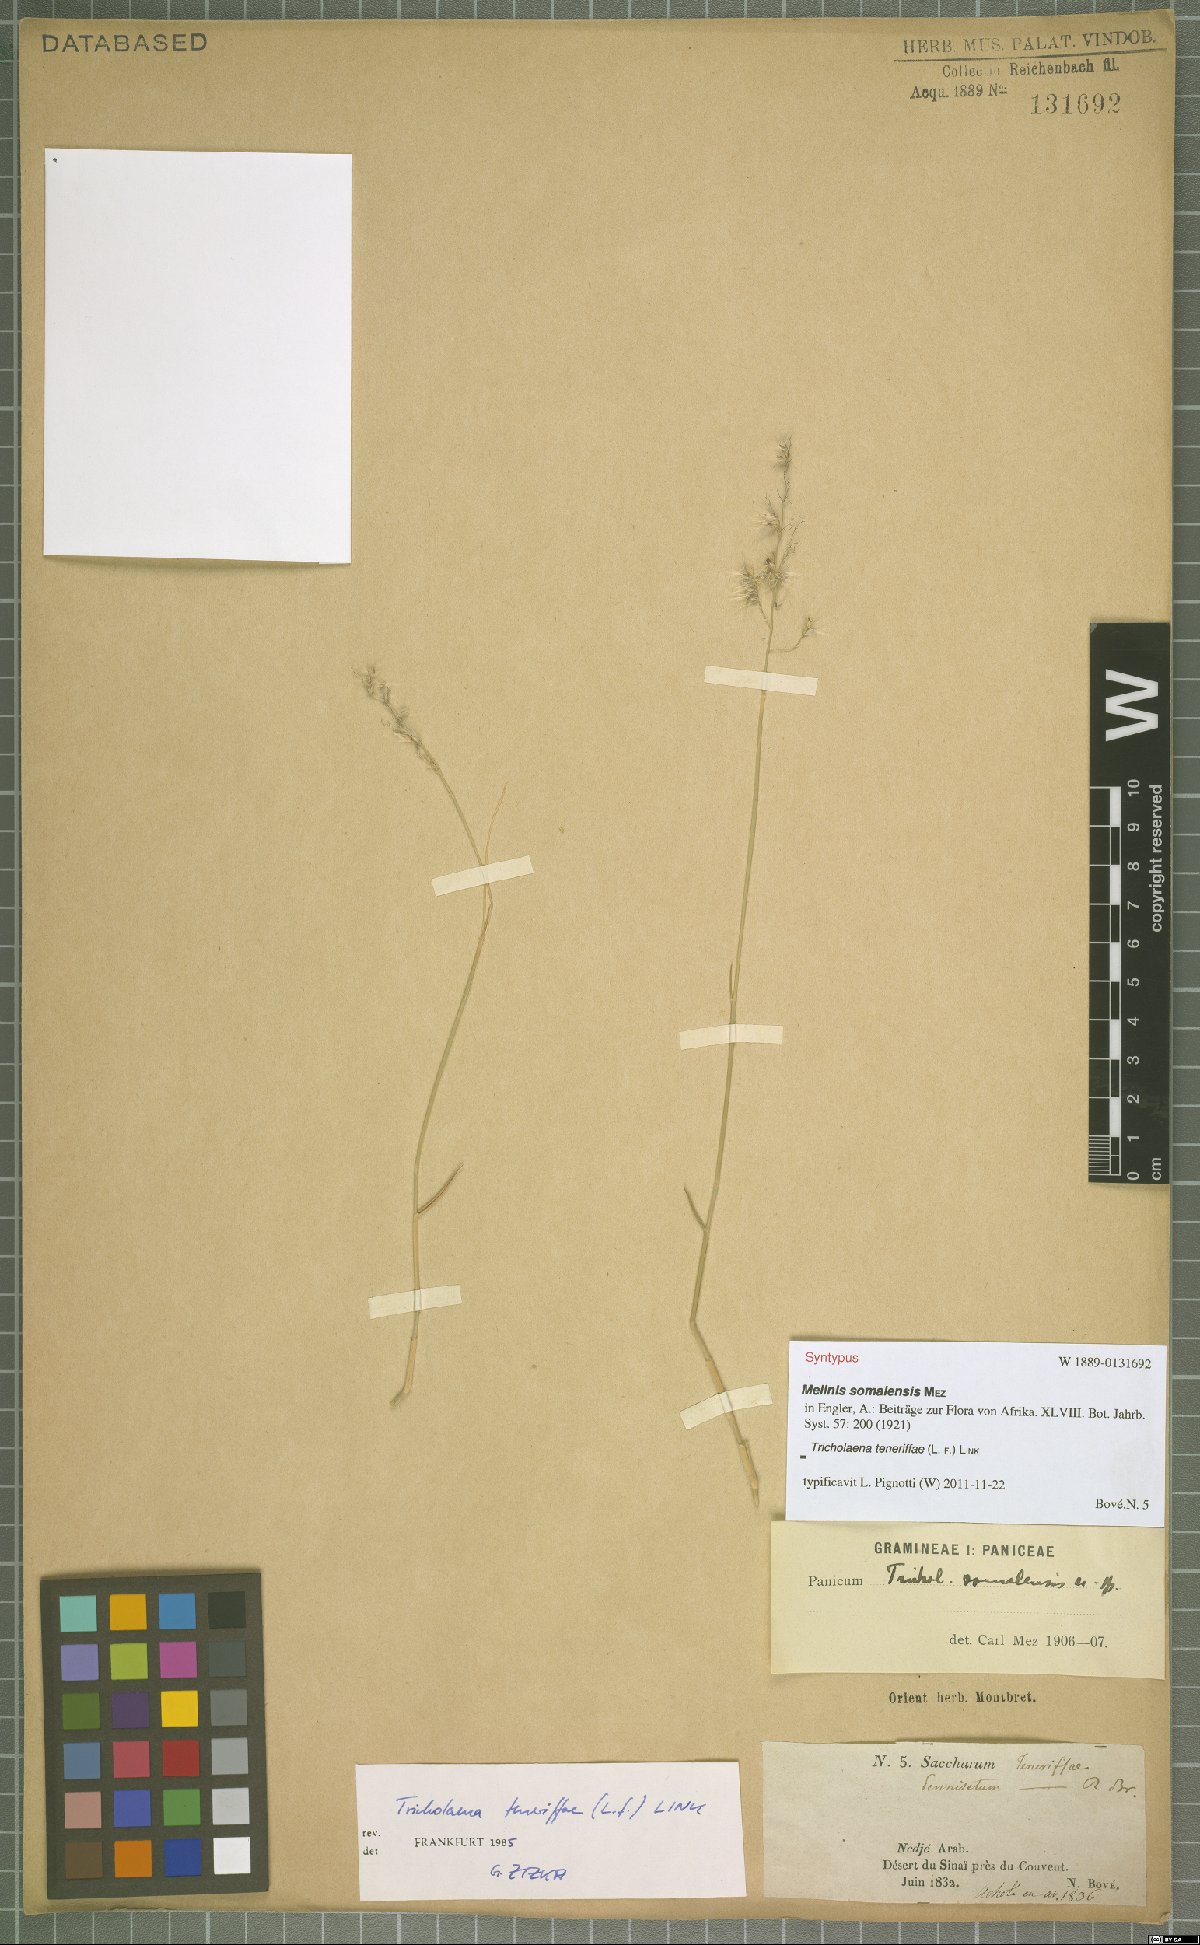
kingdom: Plantae
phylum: Tracheophyta
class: Liliopsida
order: Poales
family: Poaceae
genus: Tricholaena
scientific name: Tricholaena teneriffae
